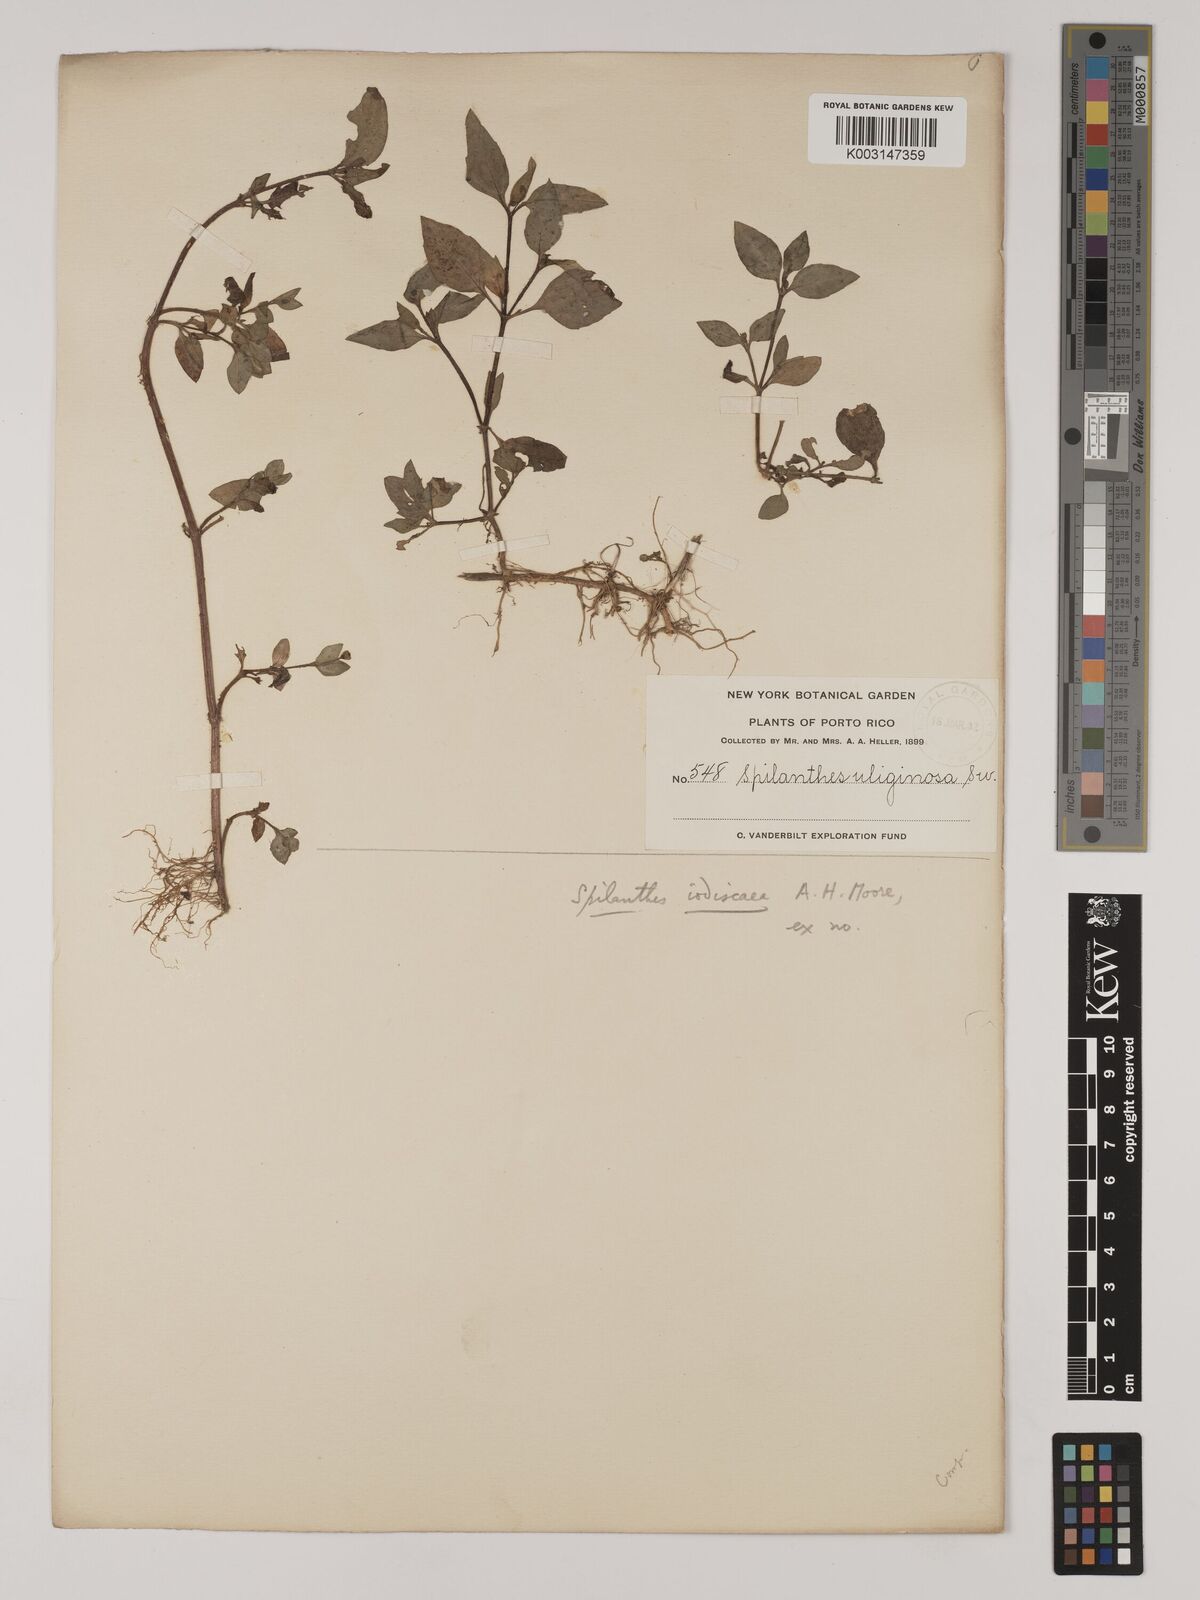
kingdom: Plantae
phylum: Tracheophyta
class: Magnoliopsida
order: Asterales
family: Asteraceae
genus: Acmella
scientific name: Acmella uliginosa
